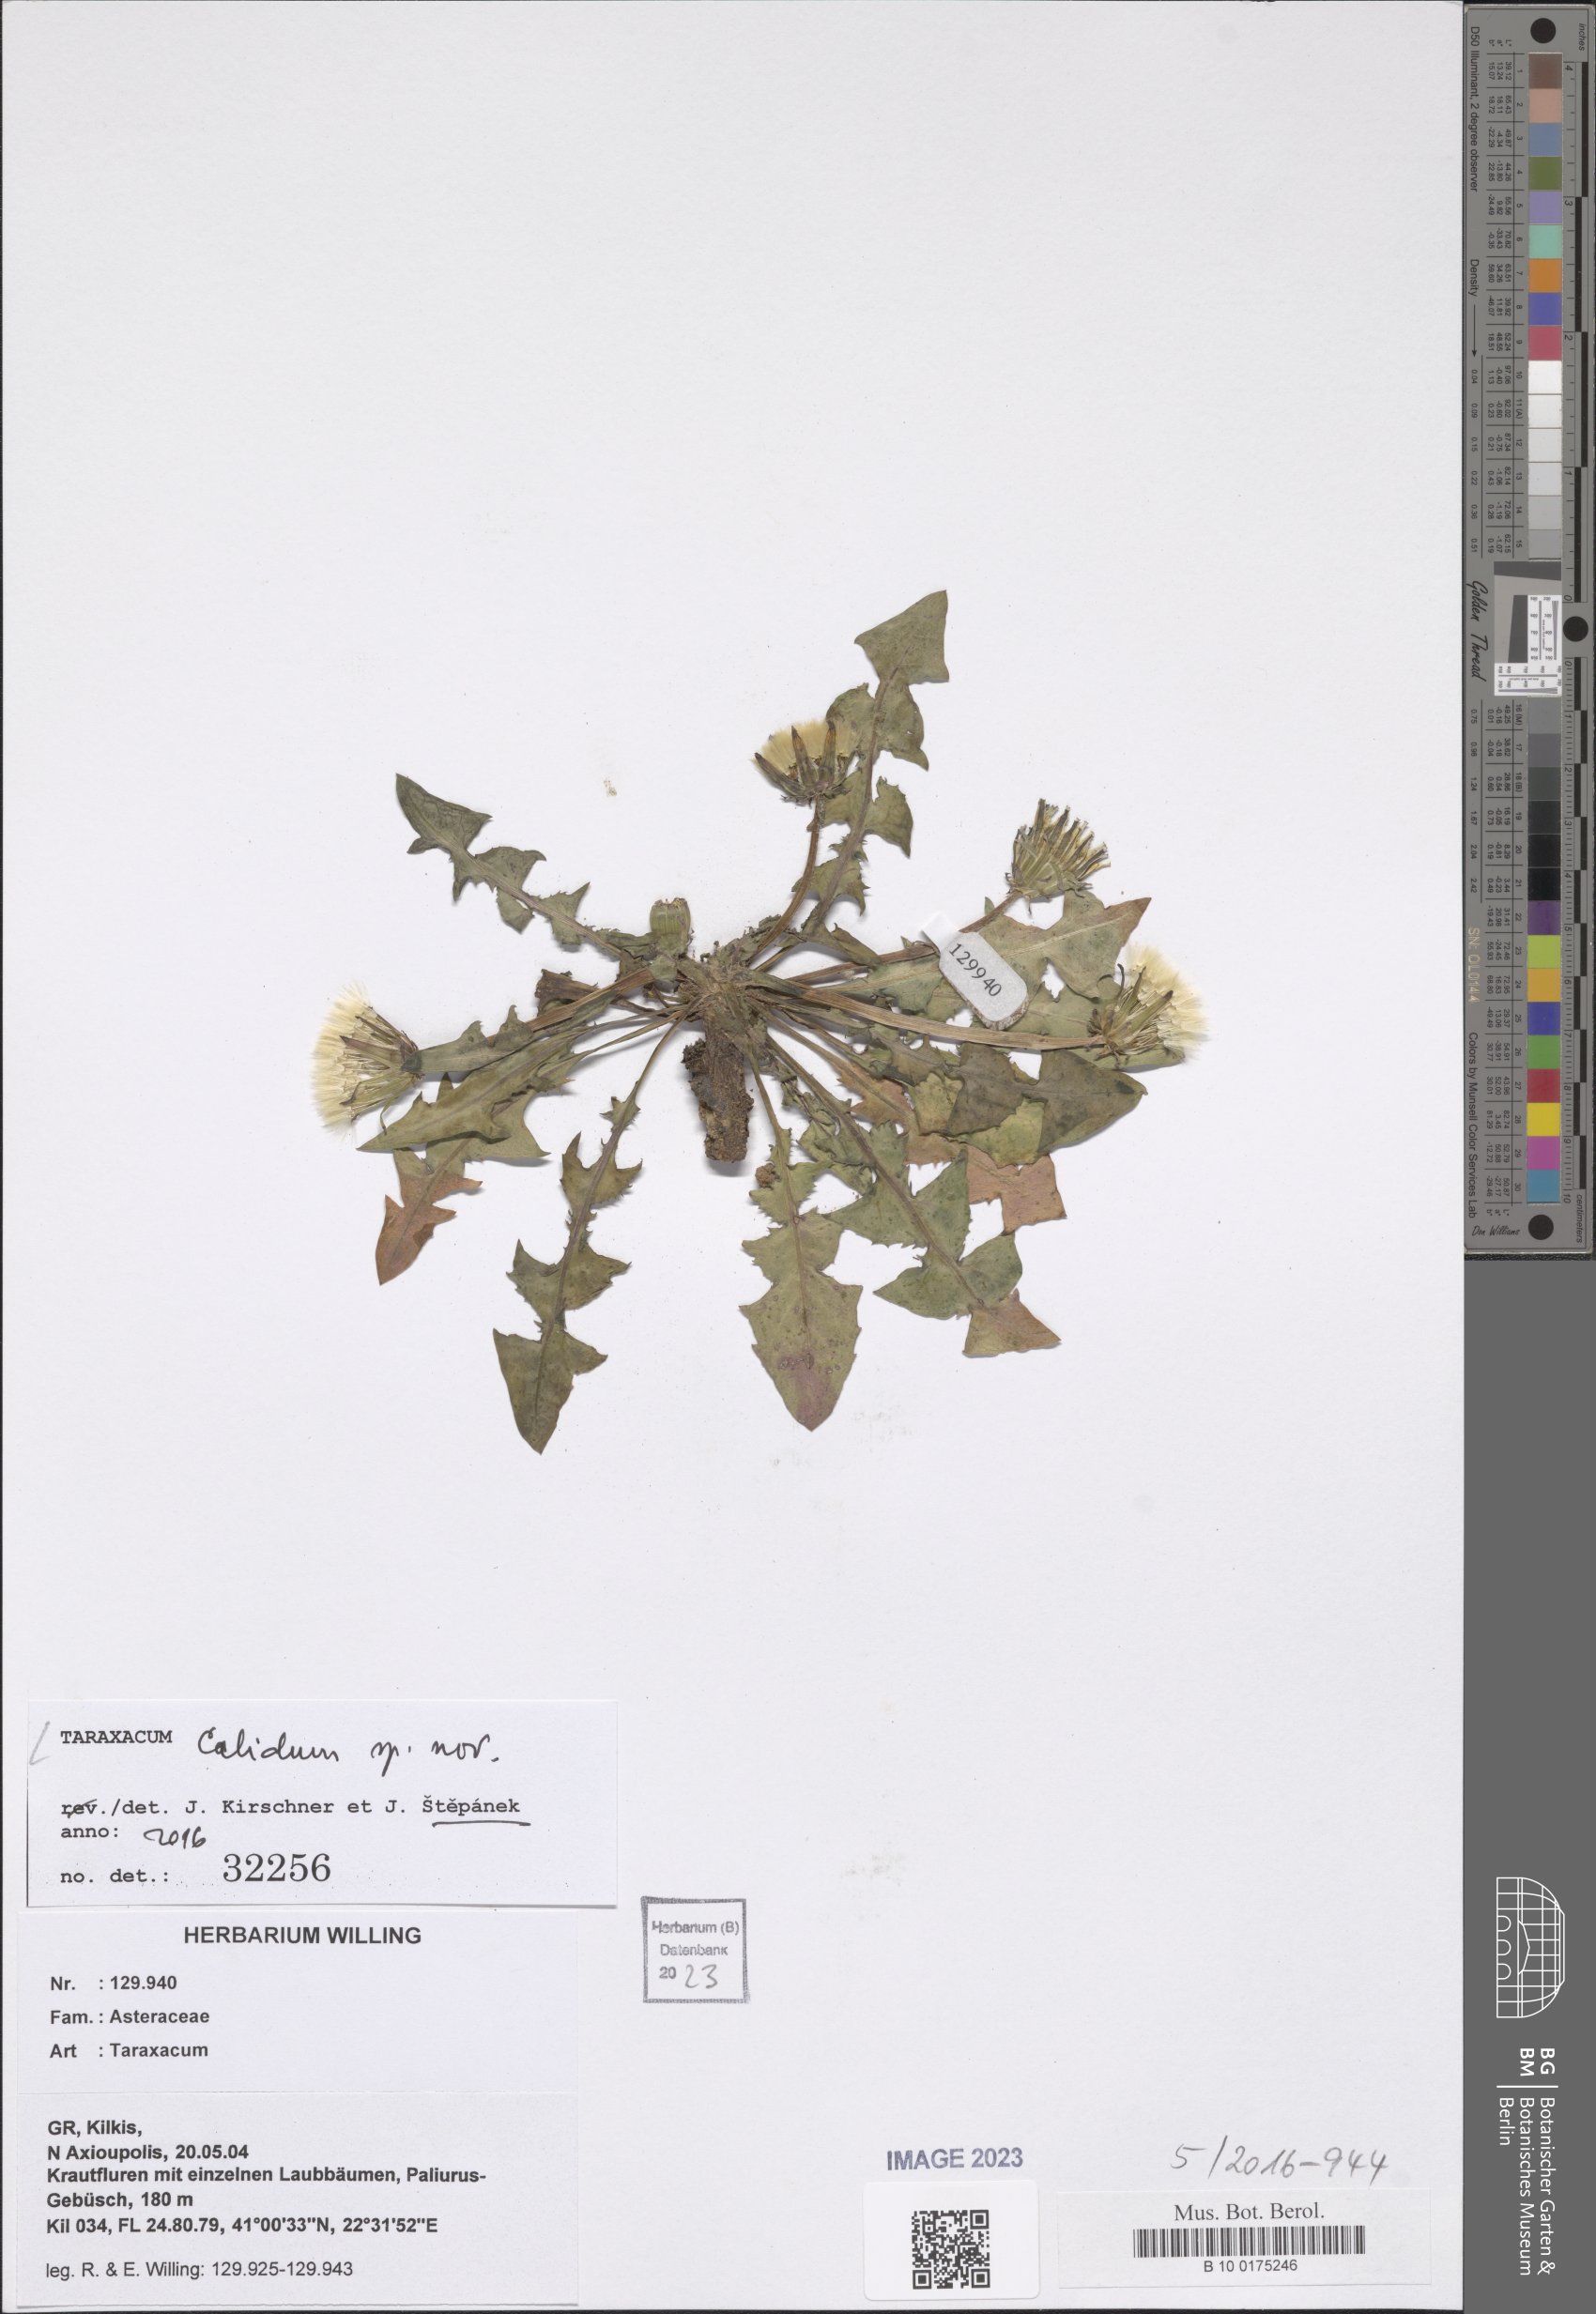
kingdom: Plantae
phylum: Tracheophyta
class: Magnoliopsida
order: Asterales
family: Asteraceae
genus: Taraxacum
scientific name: Taraxacum
